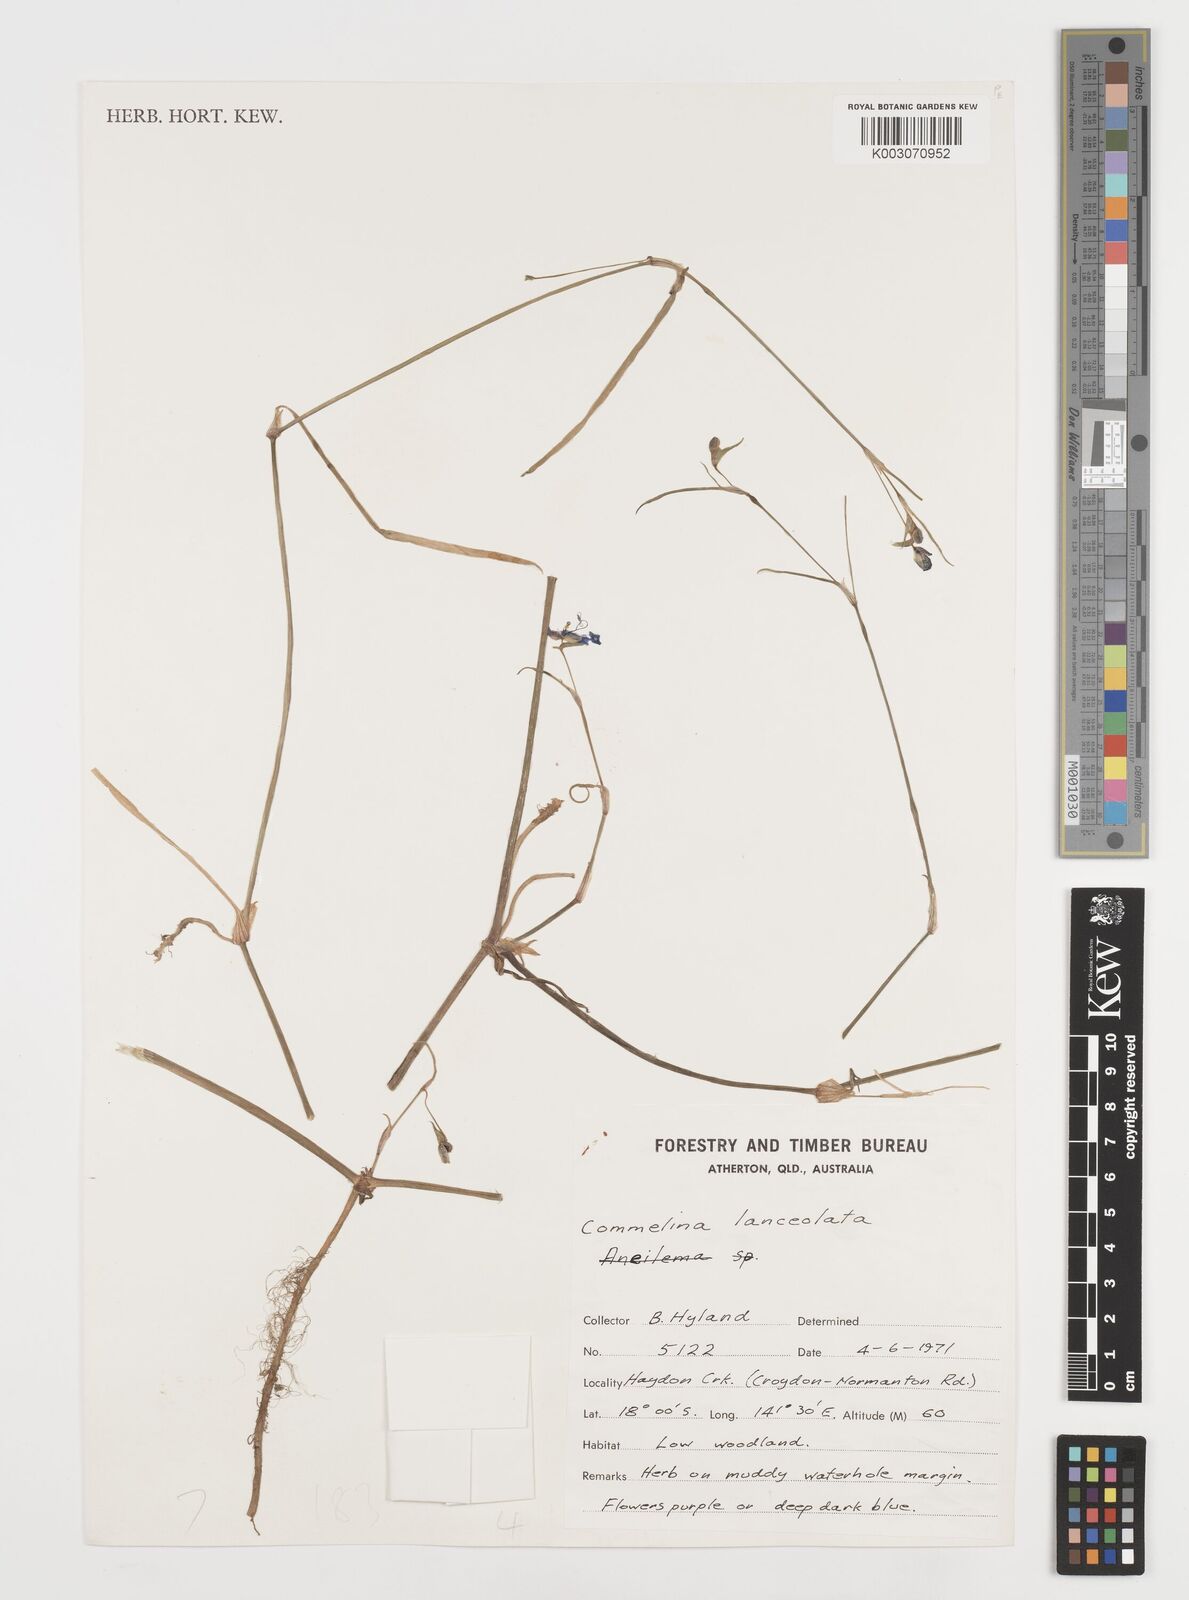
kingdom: Plantae
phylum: Tracheophyta
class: Liliopsida
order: Commelinales
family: Commelinaceae
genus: Commelina
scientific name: Commelina lanceolata
